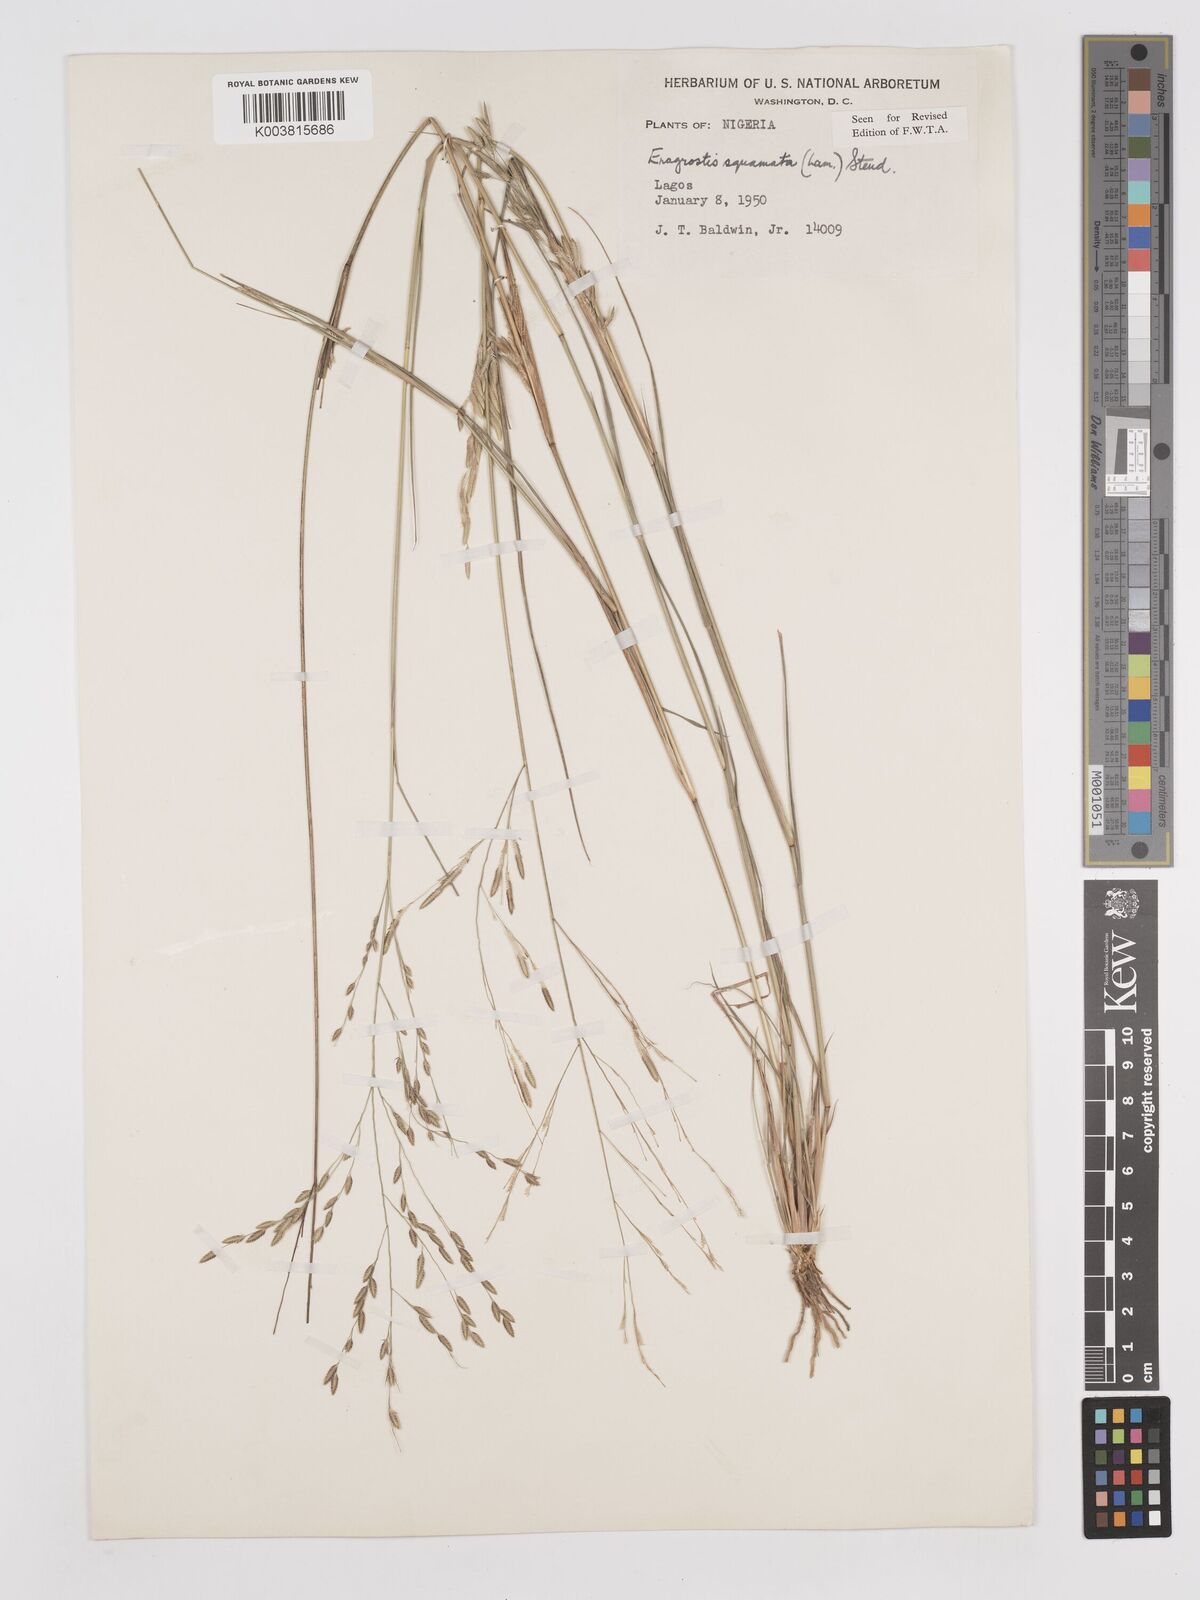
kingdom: Plantae
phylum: Tracheophyta
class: Liliopsida
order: Poales
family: Poaceae
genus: Eragrostis
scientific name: Eragrostis squamata
